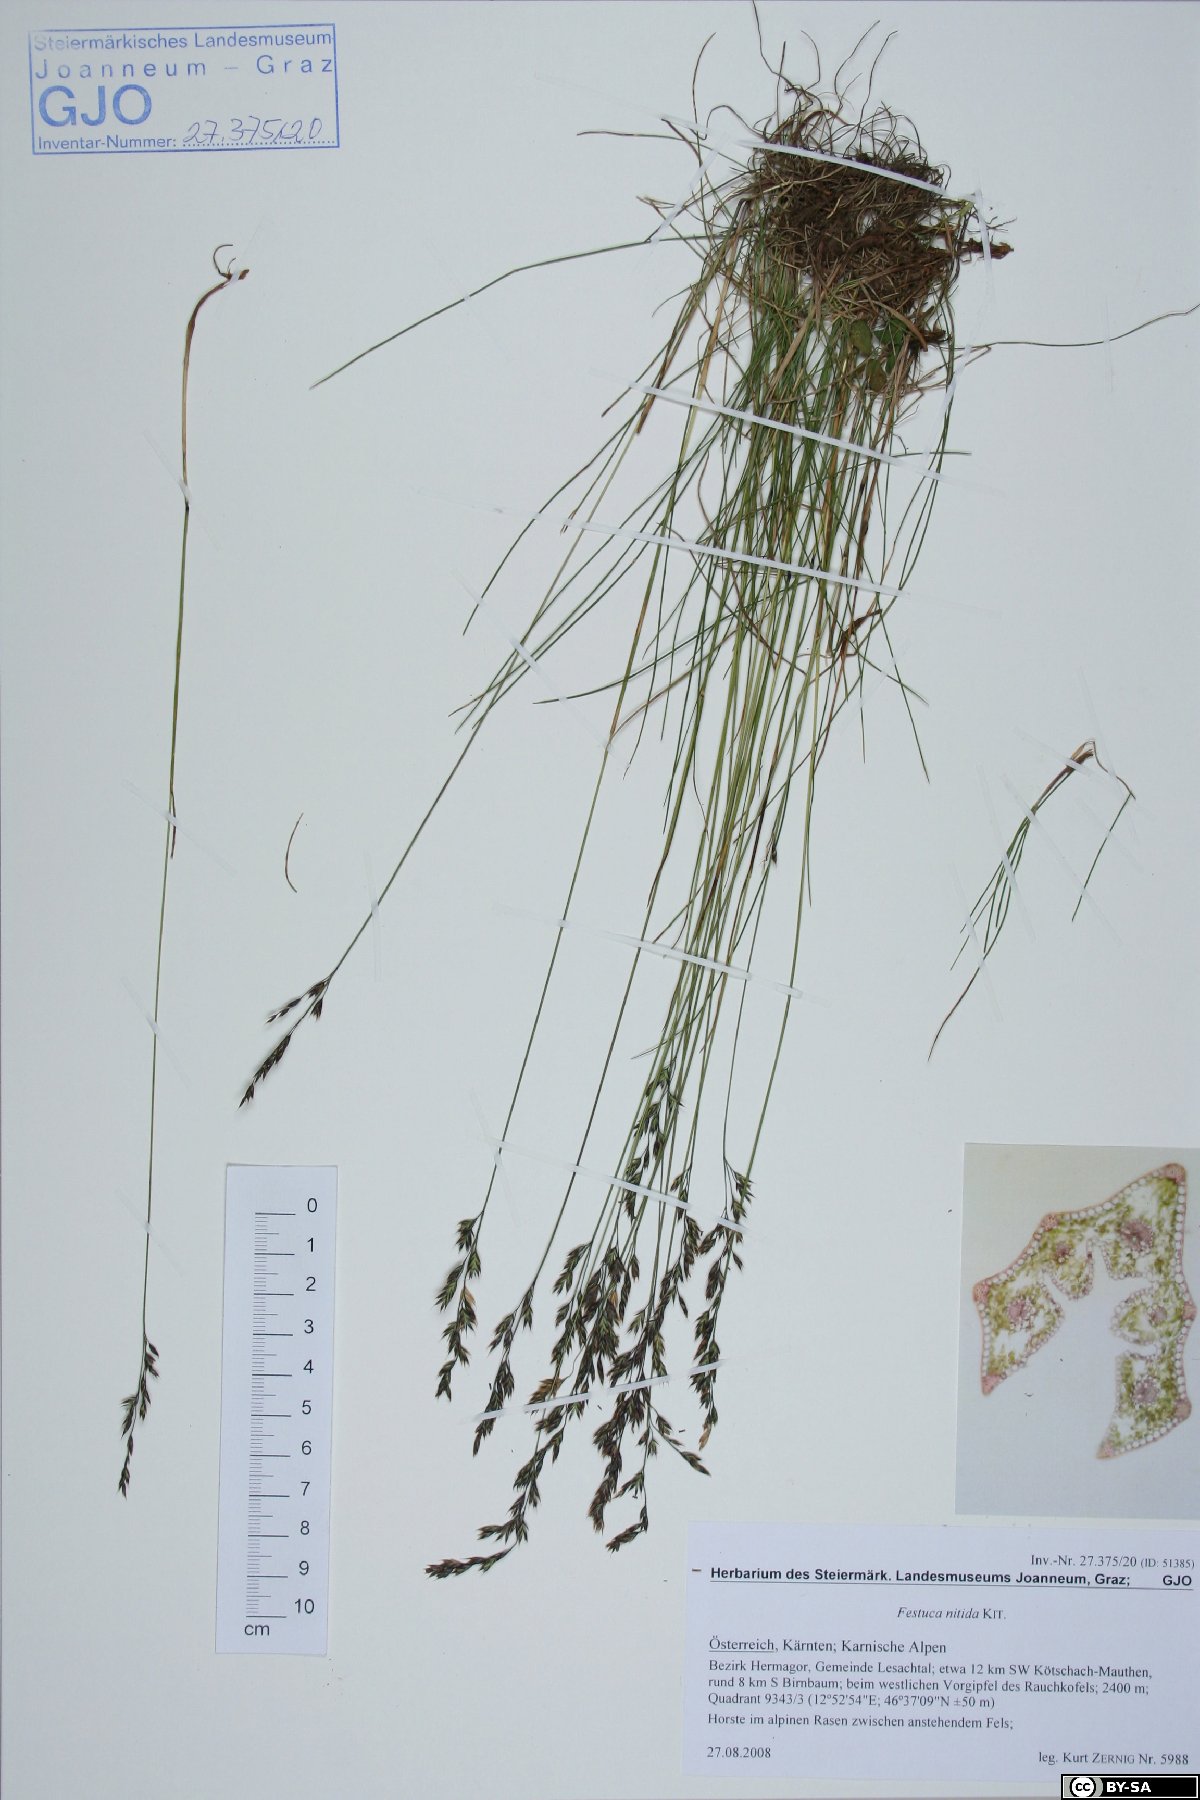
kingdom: Plantae
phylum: Tracheophyta
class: Liliopsida
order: Poales
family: Poaceae
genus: Festuca
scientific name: Festuca nitida
